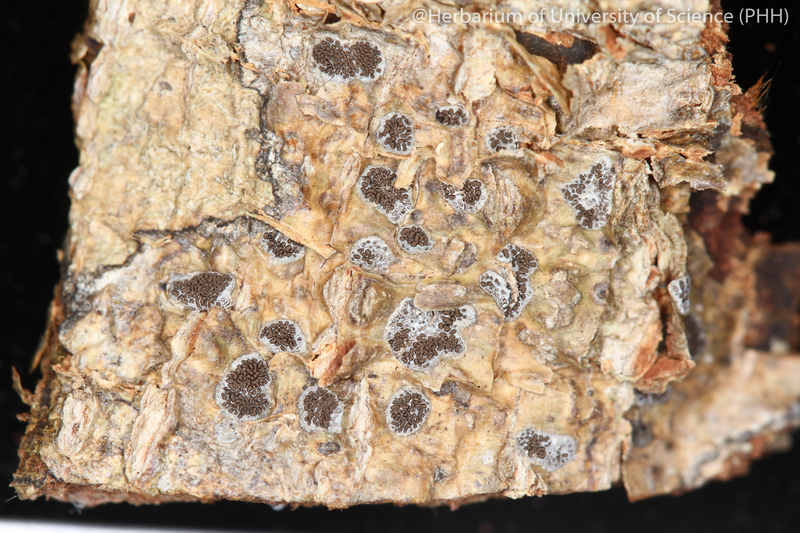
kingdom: Fungi
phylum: Ascomycota
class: Lecanoromycetes
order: Ostropales
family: Graphidaceae
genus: Glyphis
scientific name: Glyphis cicatricosa
